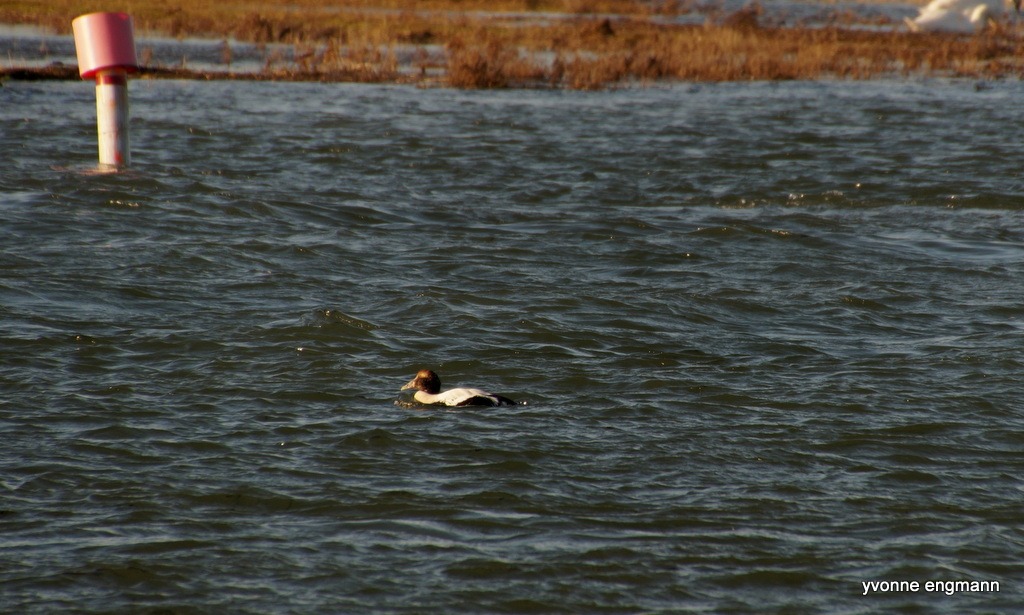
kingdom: Animalia
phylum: Chordata
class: Aves
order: Anseriformes
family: Anatidae
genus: Somateria
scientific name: Somateria mollissima
